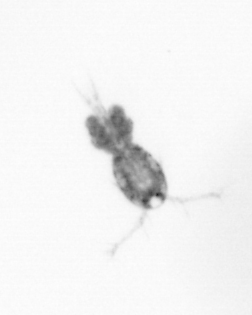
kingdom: Animalia
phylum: Arthropoda
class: Copepoda
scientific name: Copepoda
